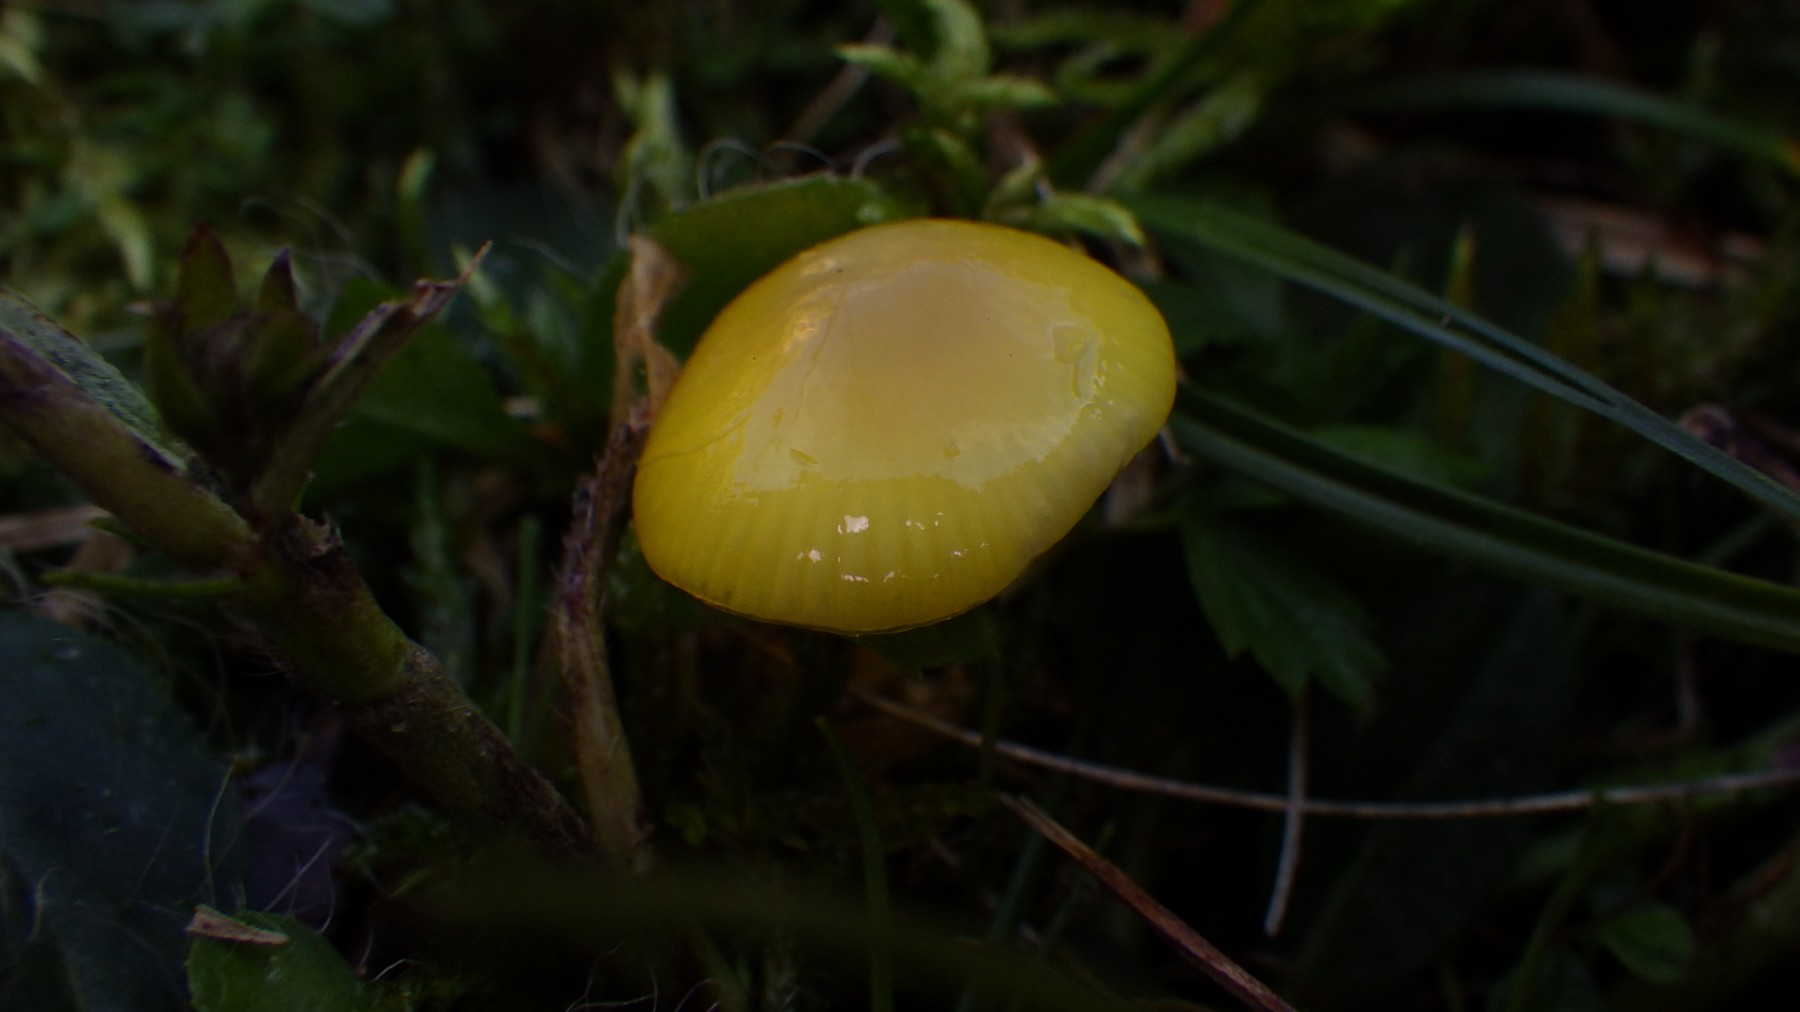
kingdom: Fungi
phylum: Basidiomycota
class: Agaricomycetes
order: Agaricales
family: Hygrophoraceae
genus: Hygrocybe
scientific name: Hygrocybe glutinipes
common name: slimstokket vokshat
